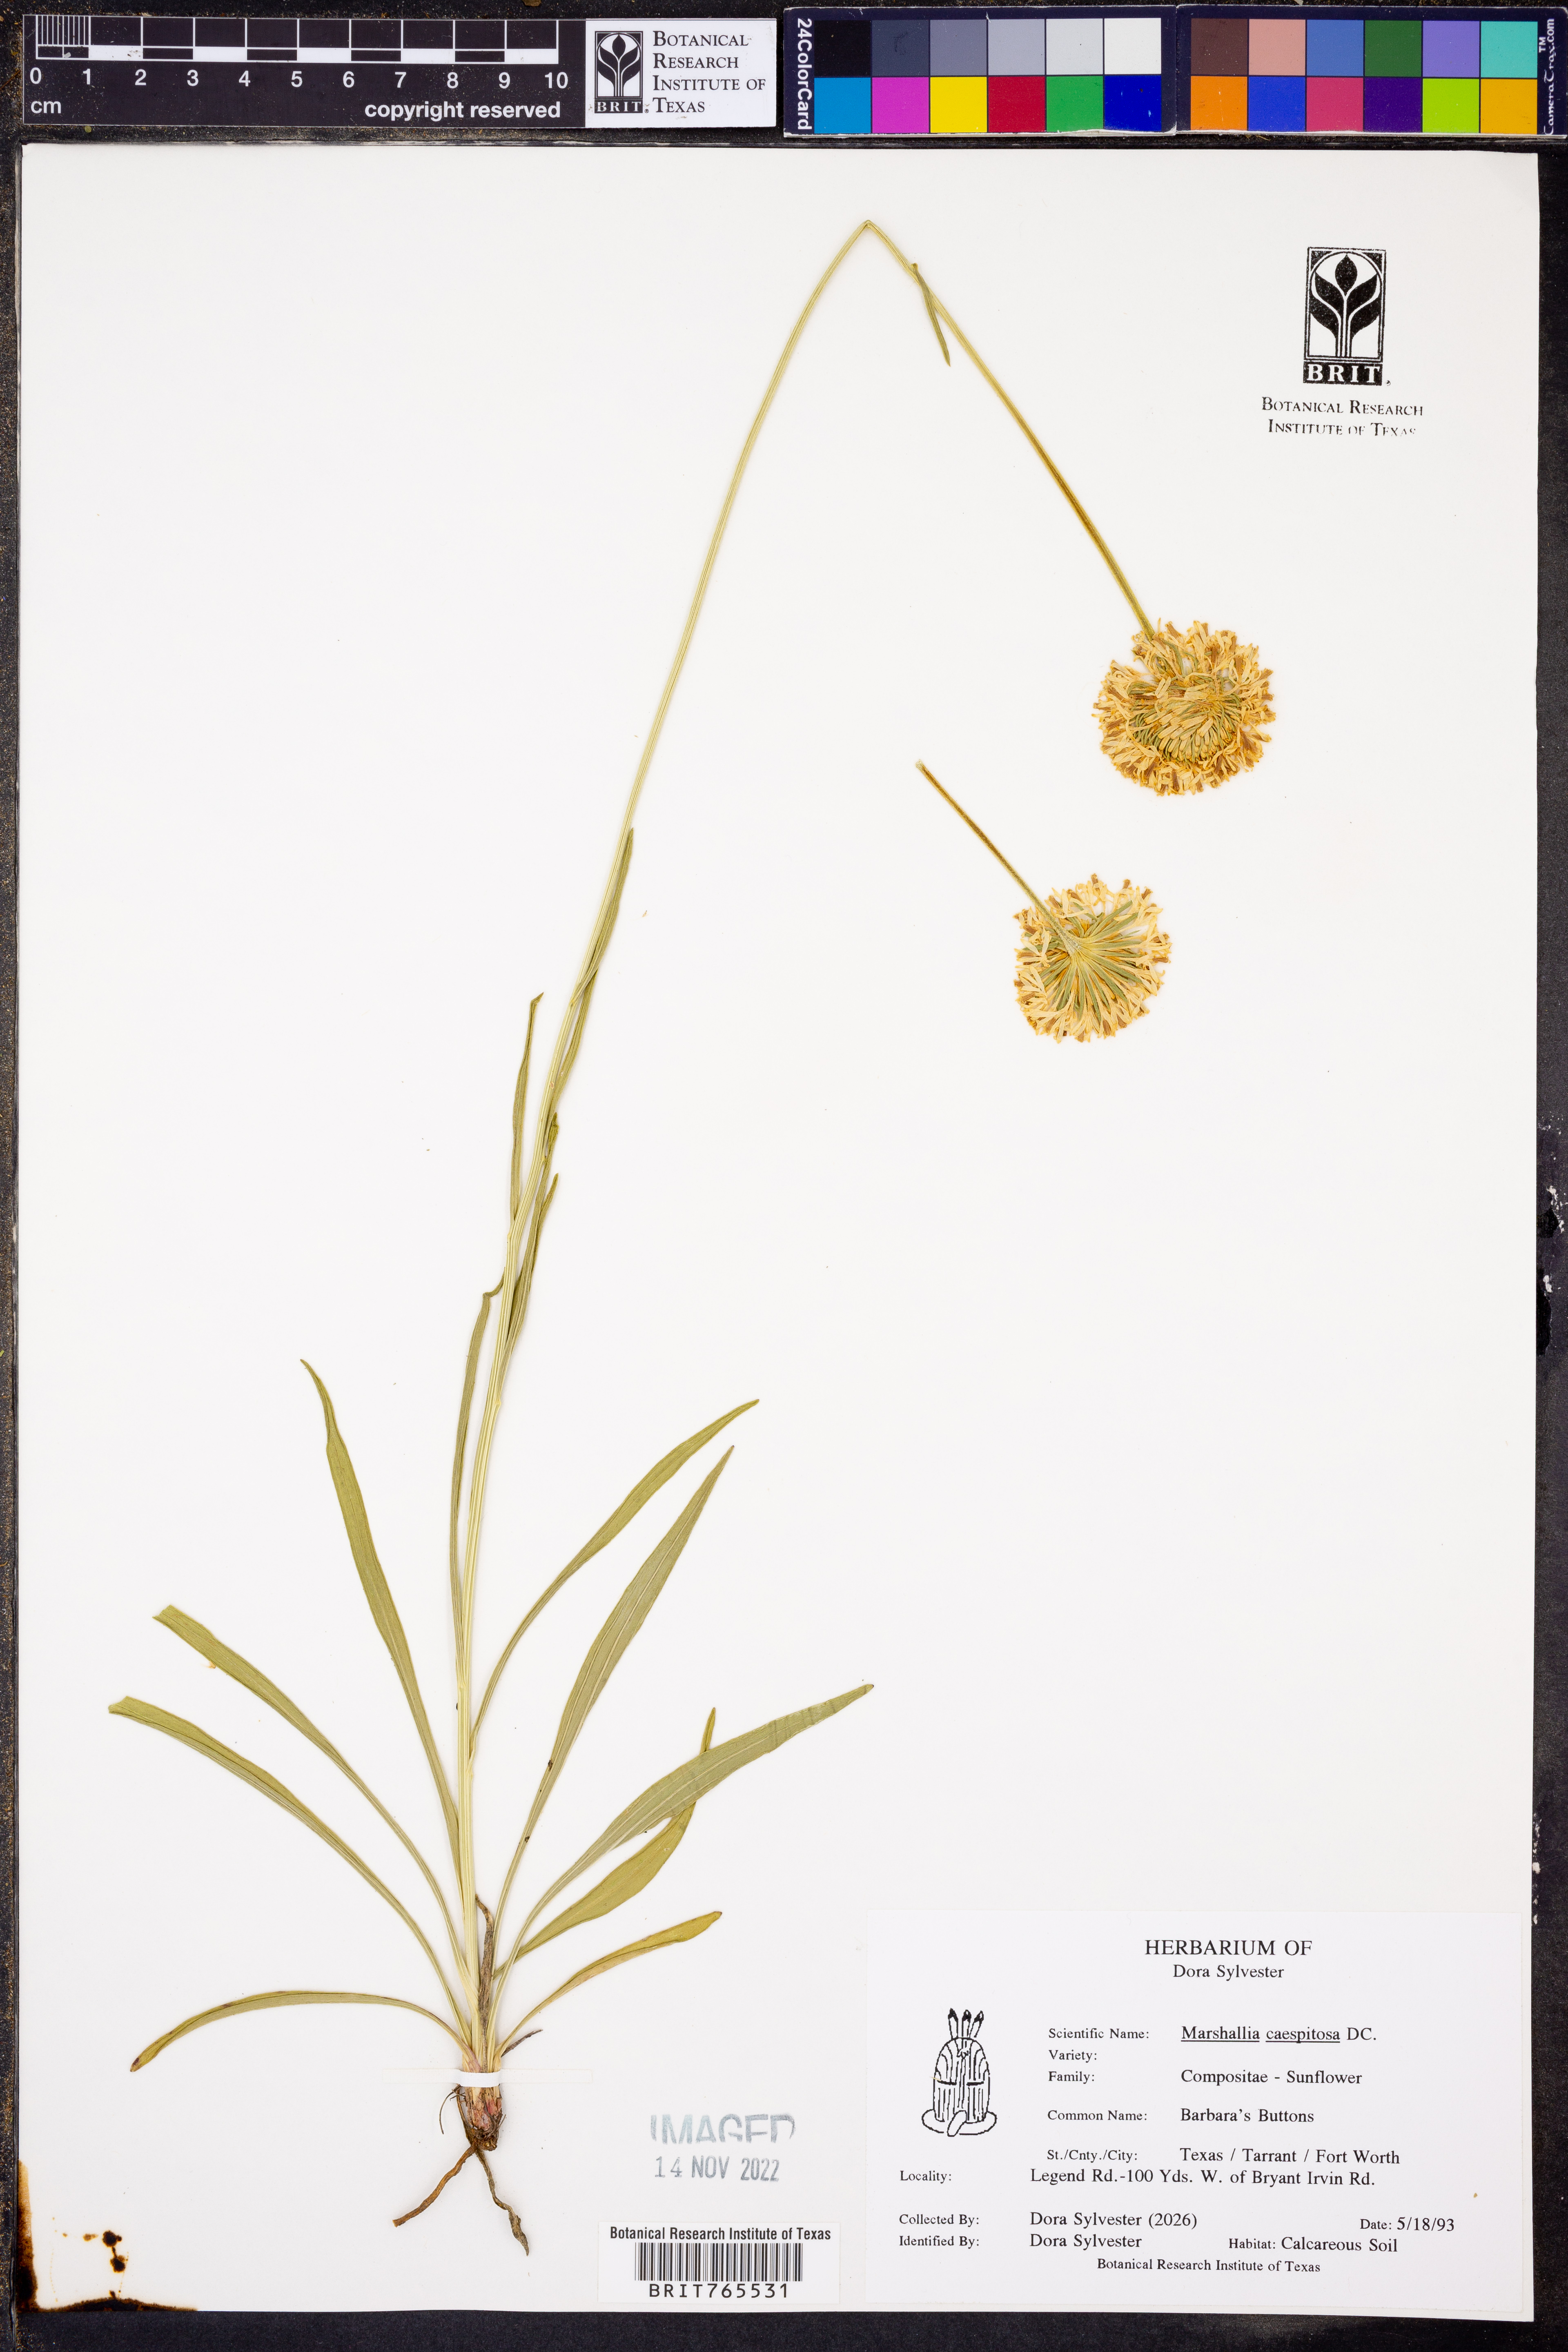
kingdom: Plantae
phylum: Tracheophyta
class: Magnoliopsida
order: Asterales
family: Asteraceae
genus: Marshallia
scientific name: Marshallia caespitosa
